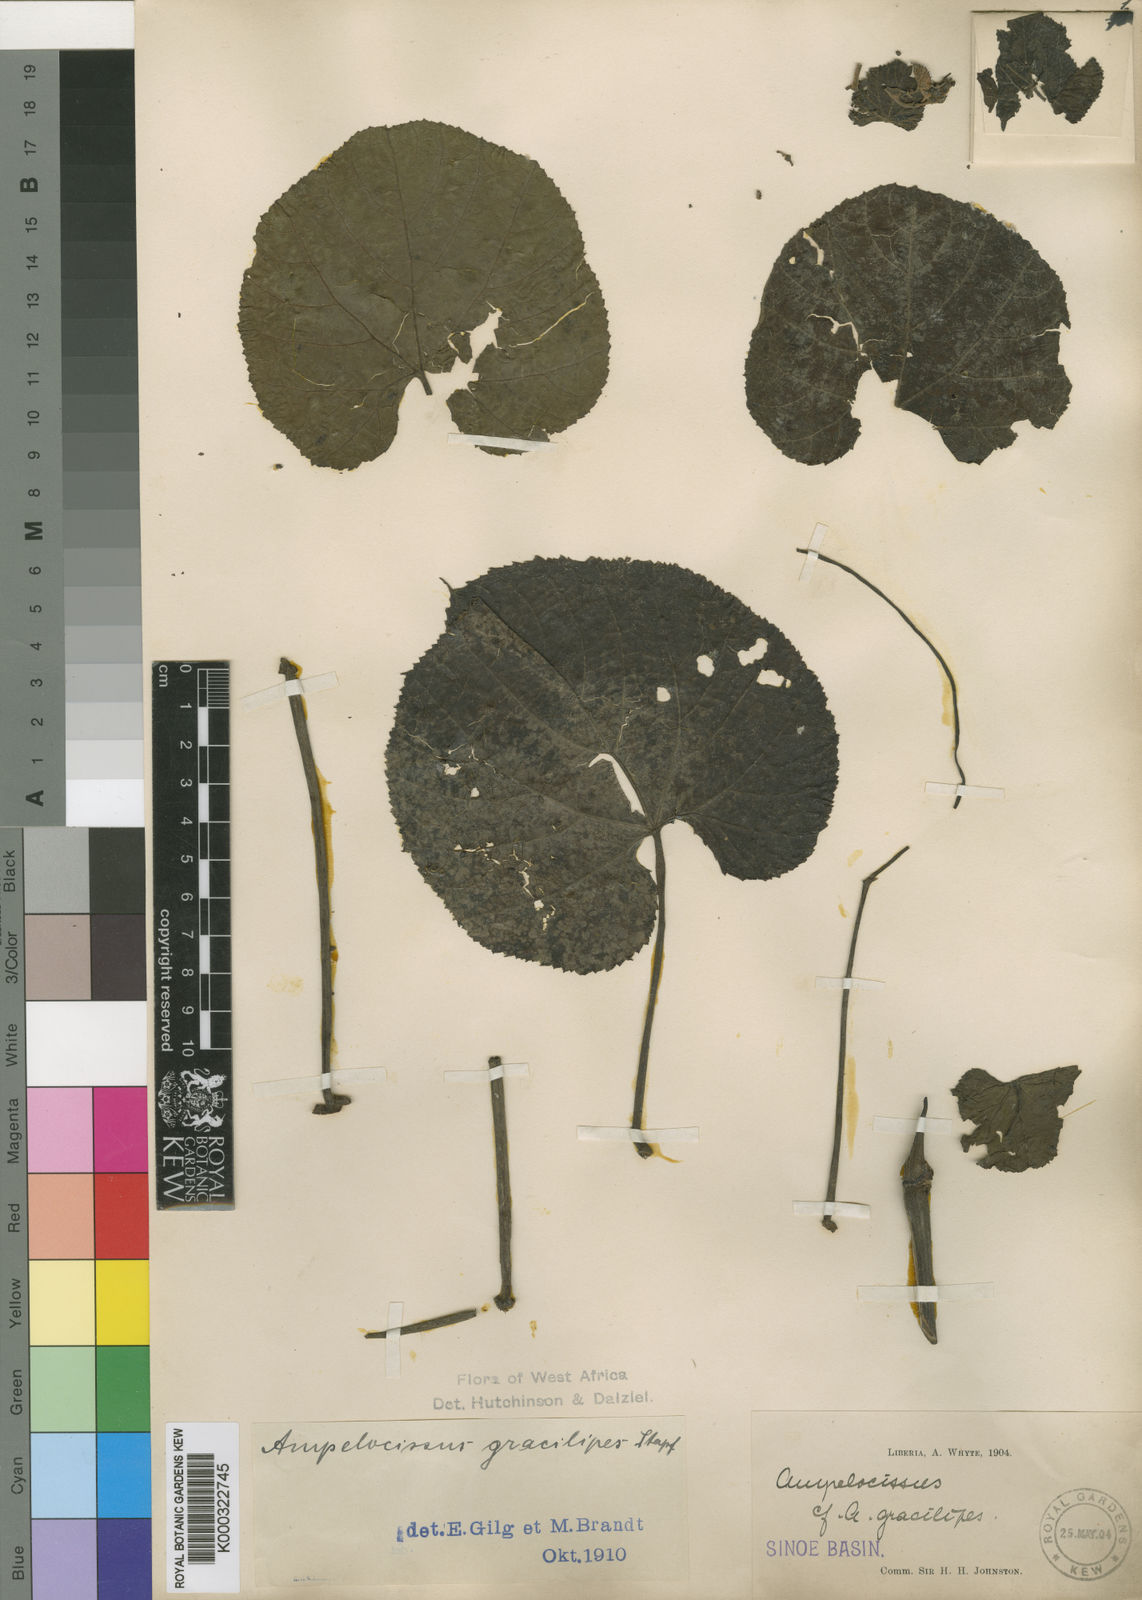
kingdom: Plantae
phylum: Tracheophyta
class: Magnoliopsida
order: Vitales
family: Vitaceae
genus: Ampelocissus
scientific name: Ampelocissus gracilipes
